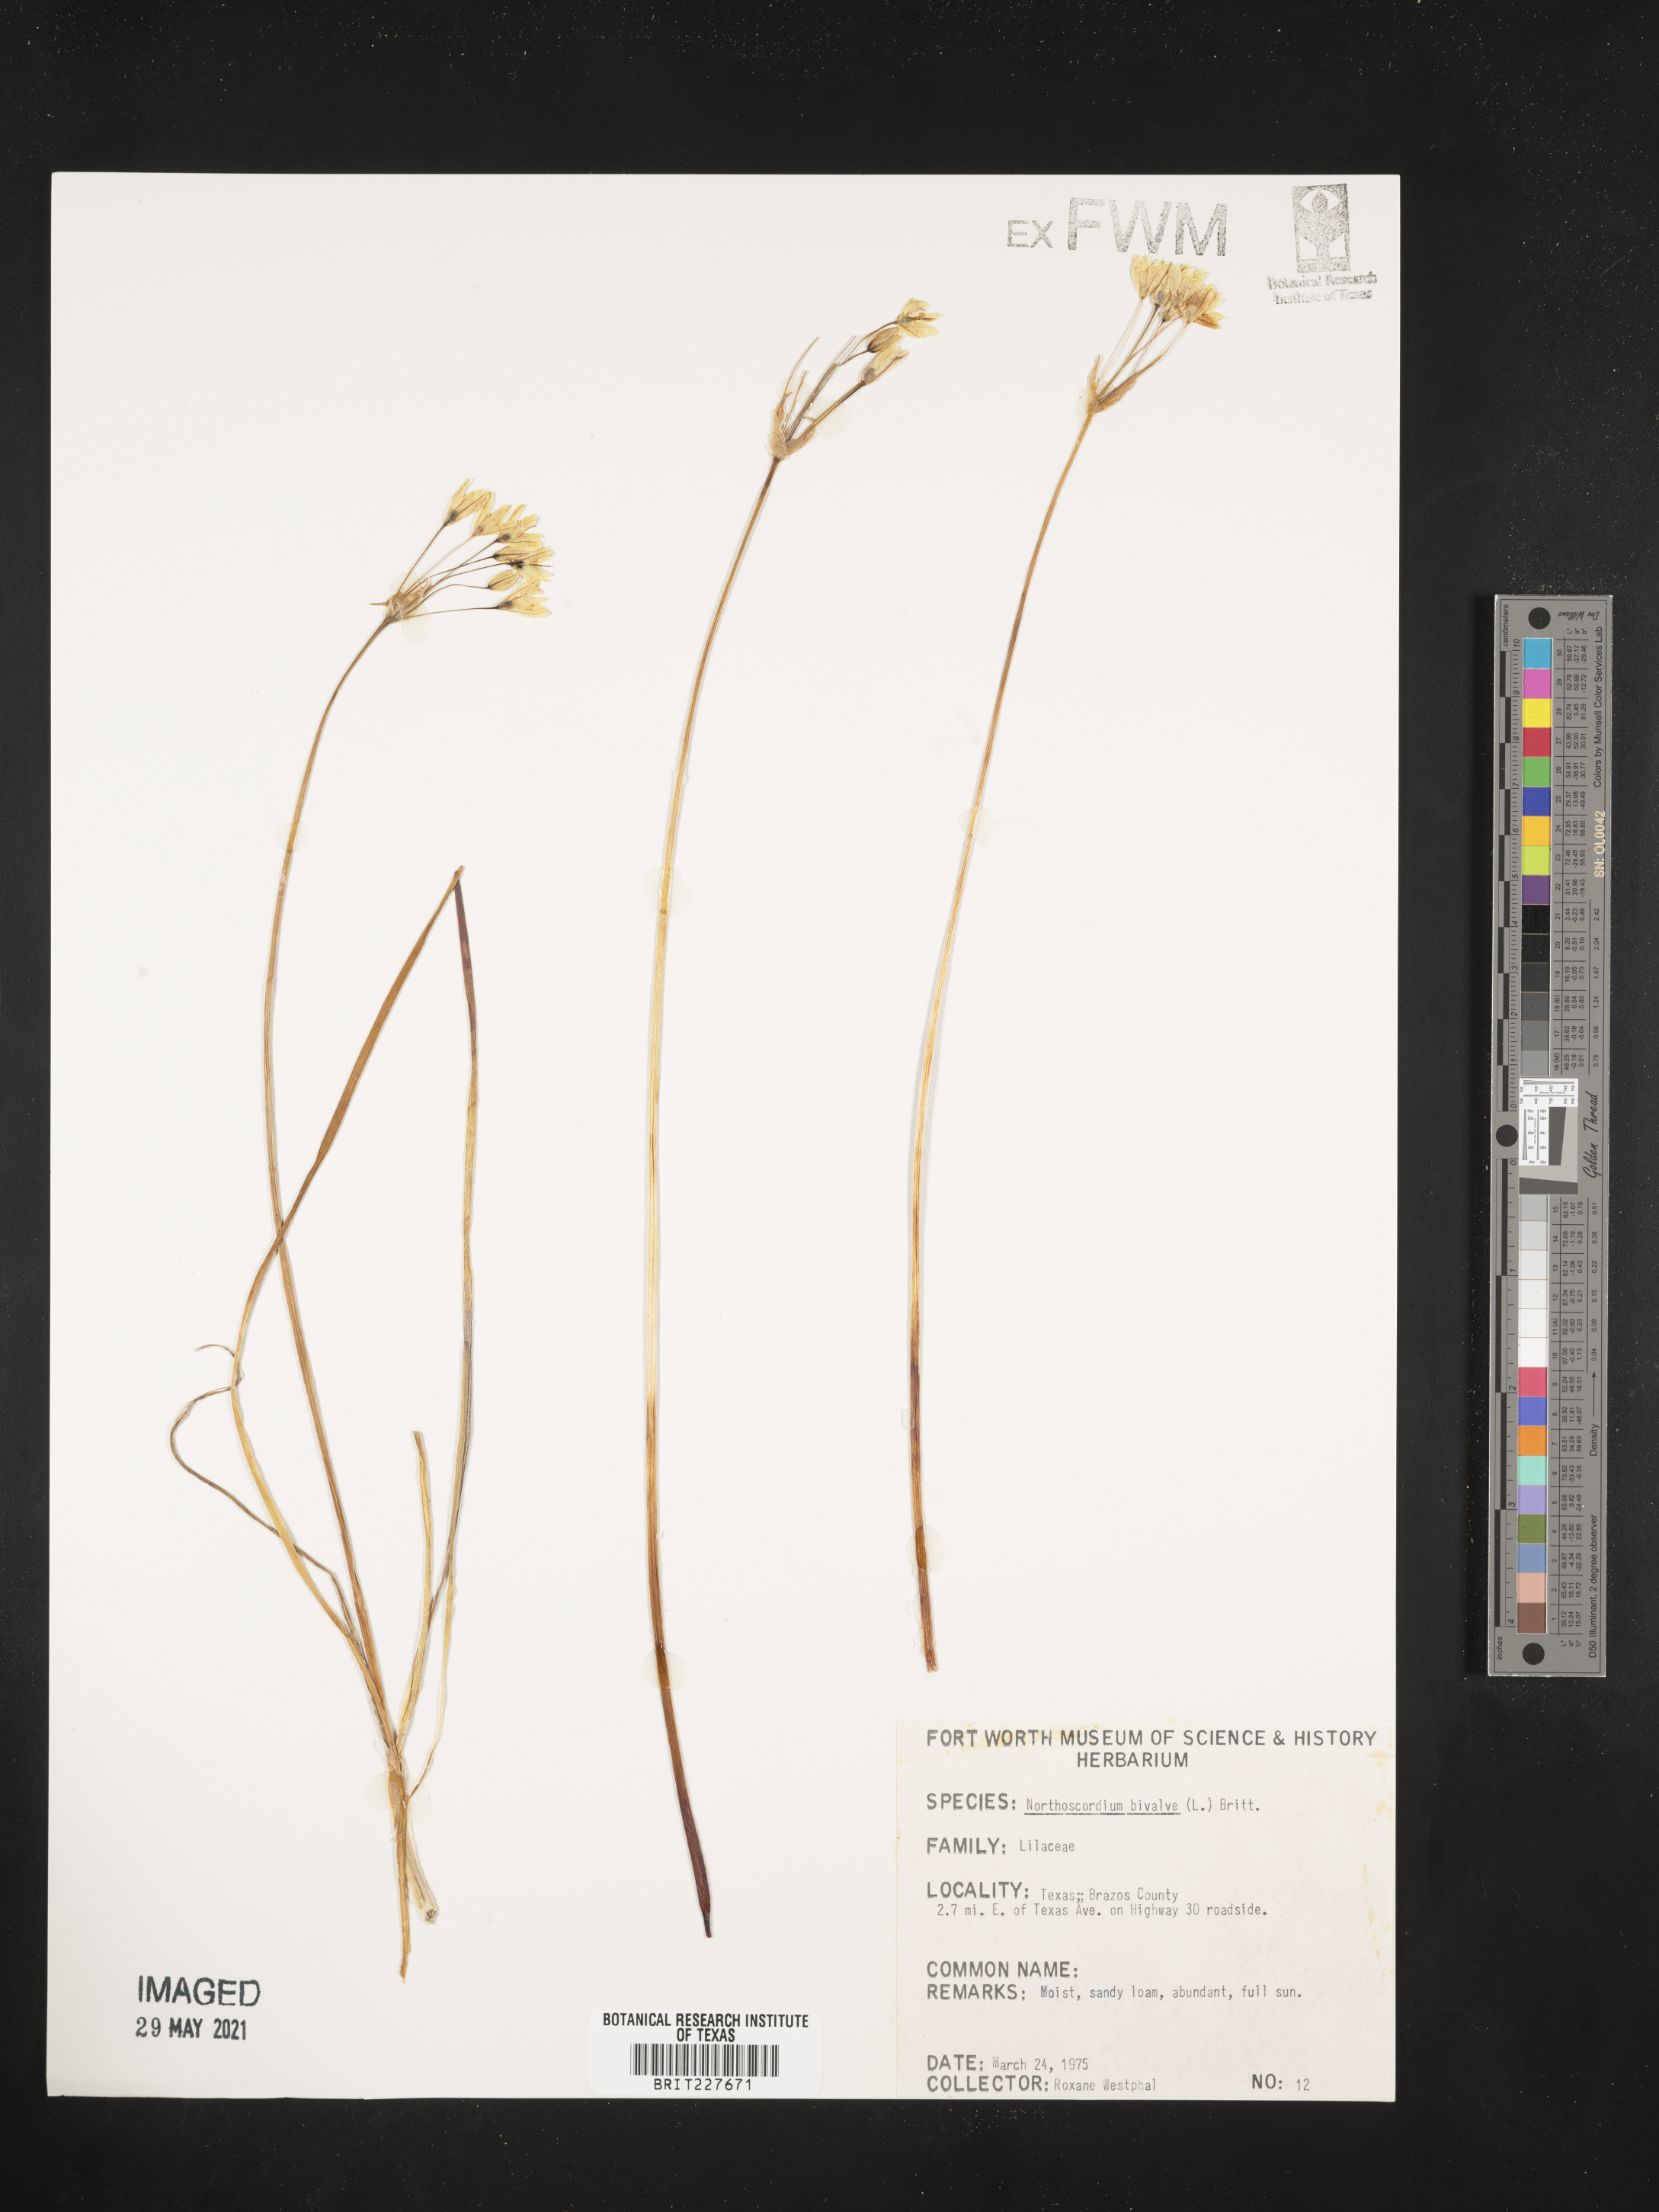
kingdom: Plantae
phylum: Tracheophyta
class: Liliopsida
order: Asparagales
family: Amaryllidaceae
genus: Nothoscordum
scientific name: Nothoscordum bivalve
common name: Crow-poison
